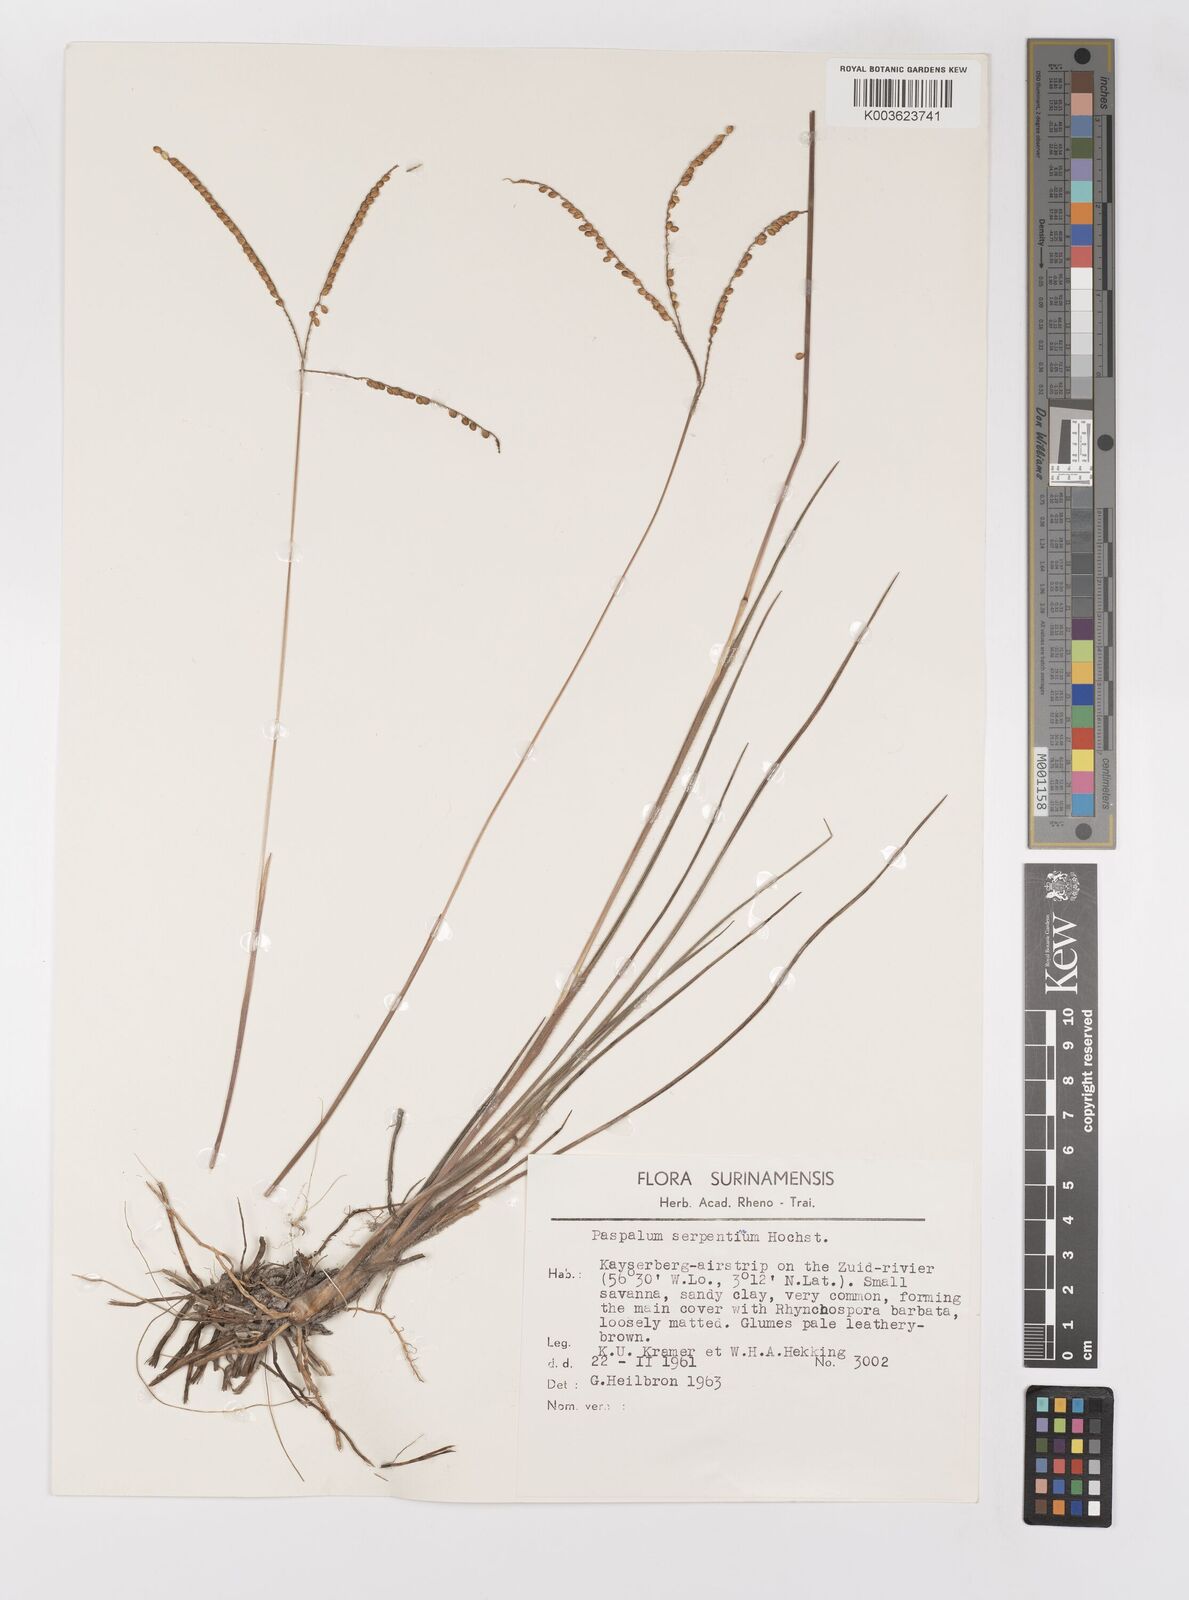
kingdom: Plantae
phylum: Tracheophyta
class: Liliopsida
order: Poales
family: Poaceae
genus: Paspalum
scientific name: Paspalum serpentinum
